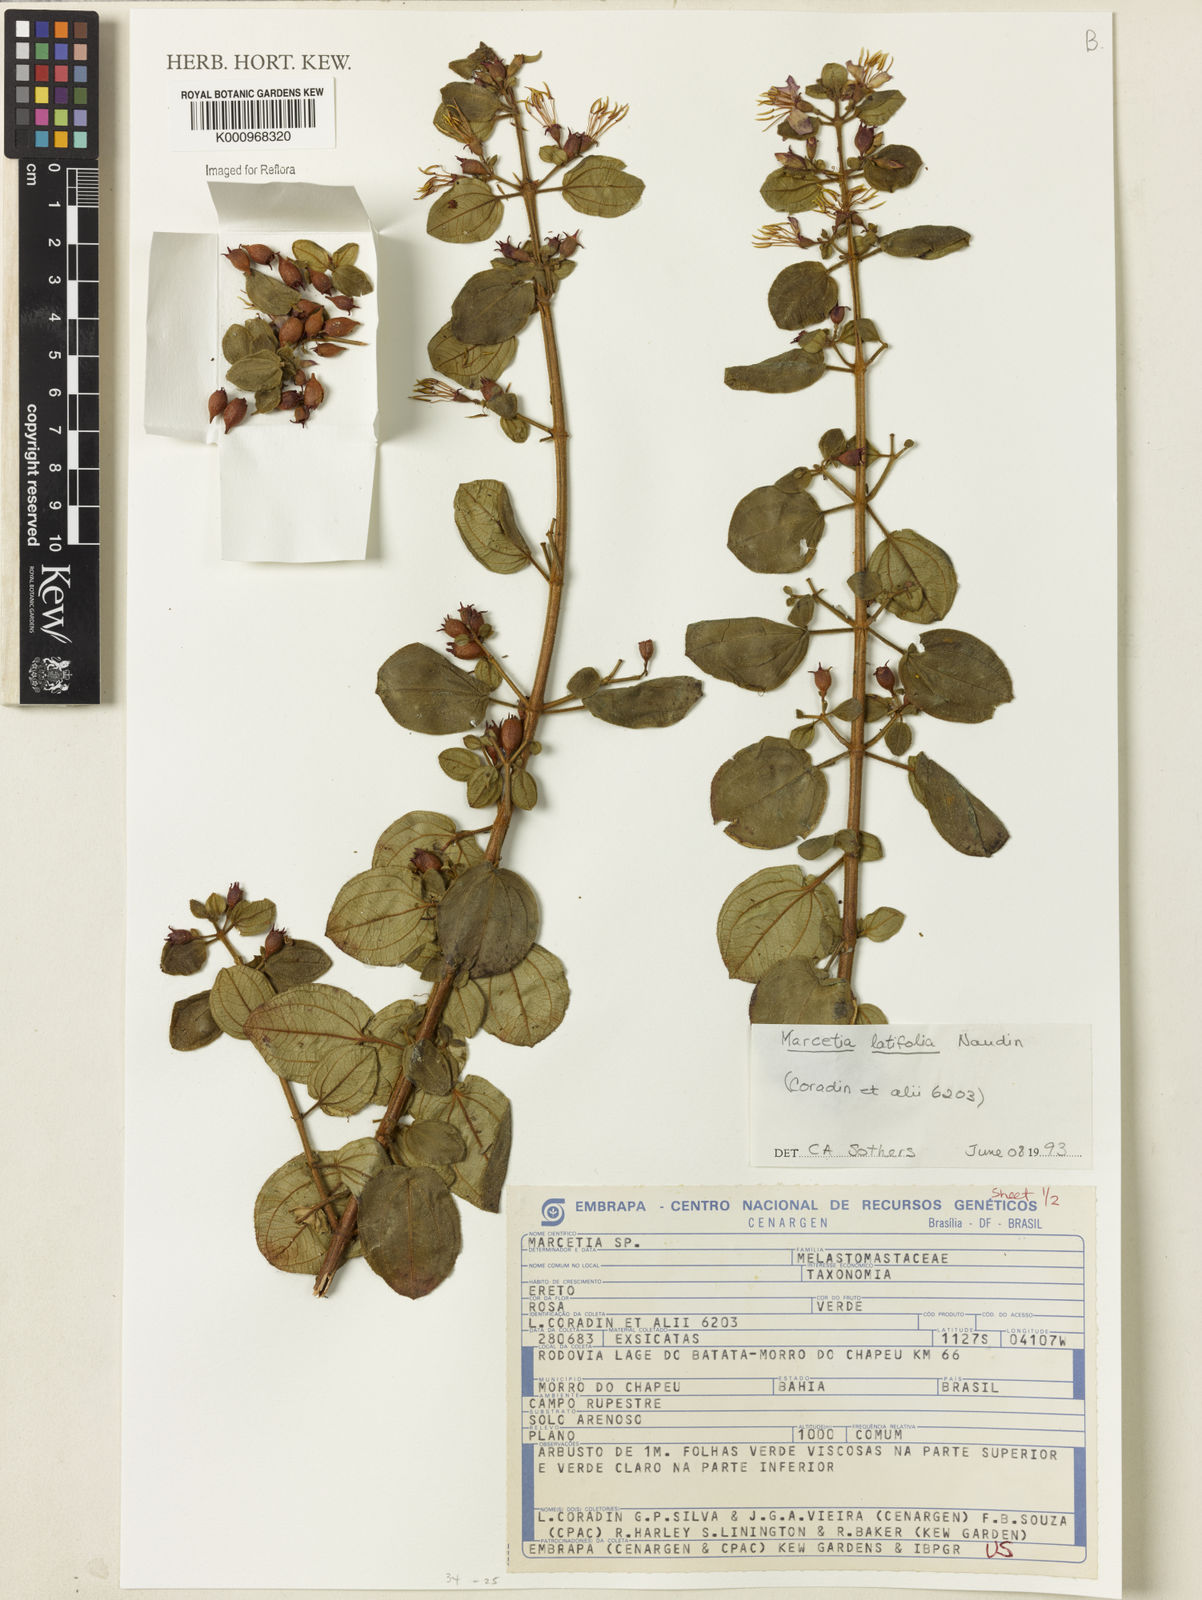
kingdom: Plantae
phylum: Tracheophyta
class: Magnoliopsida
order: Myrtales
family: Melastomataceae
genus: Marcetia
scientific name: Marcetia latifolia
